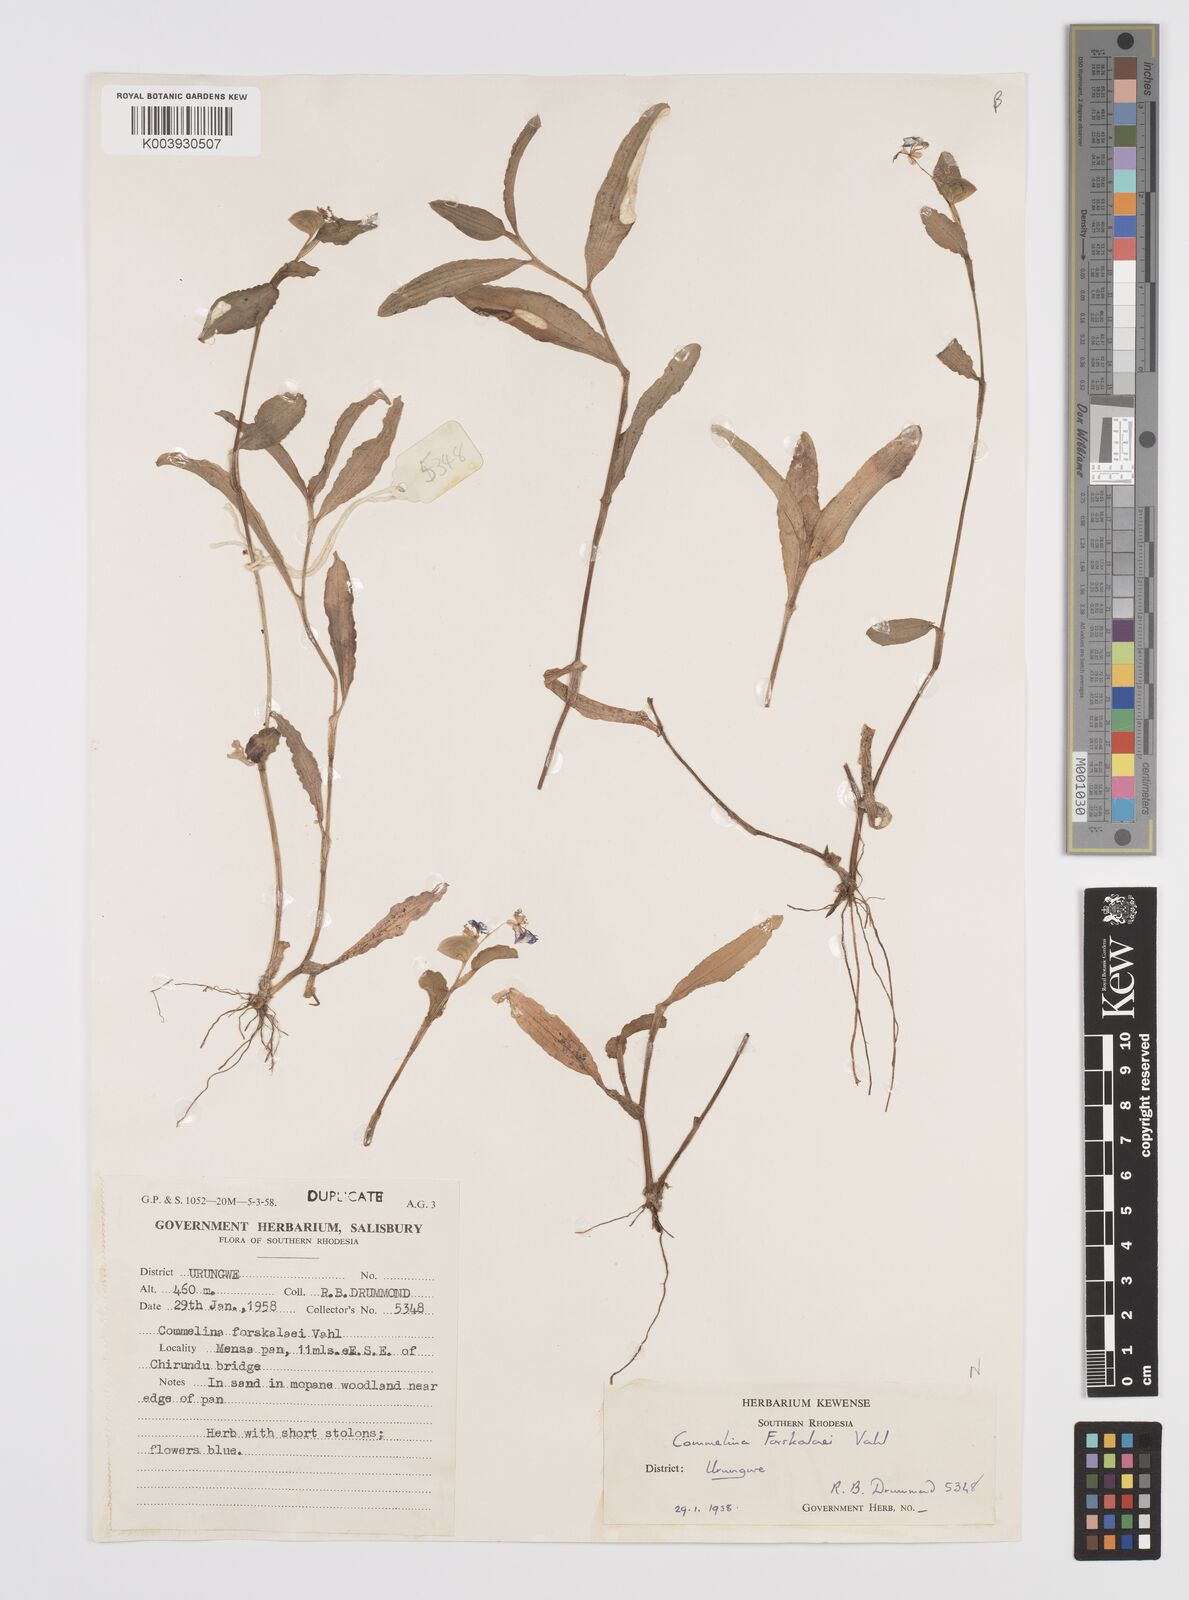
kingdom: Plantae
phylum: Tracheophyta
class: Liliopsida
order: Commelinales
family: Commelinaceae
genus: Commelina
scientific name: Commelina forskaolii
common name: Rat's ear
